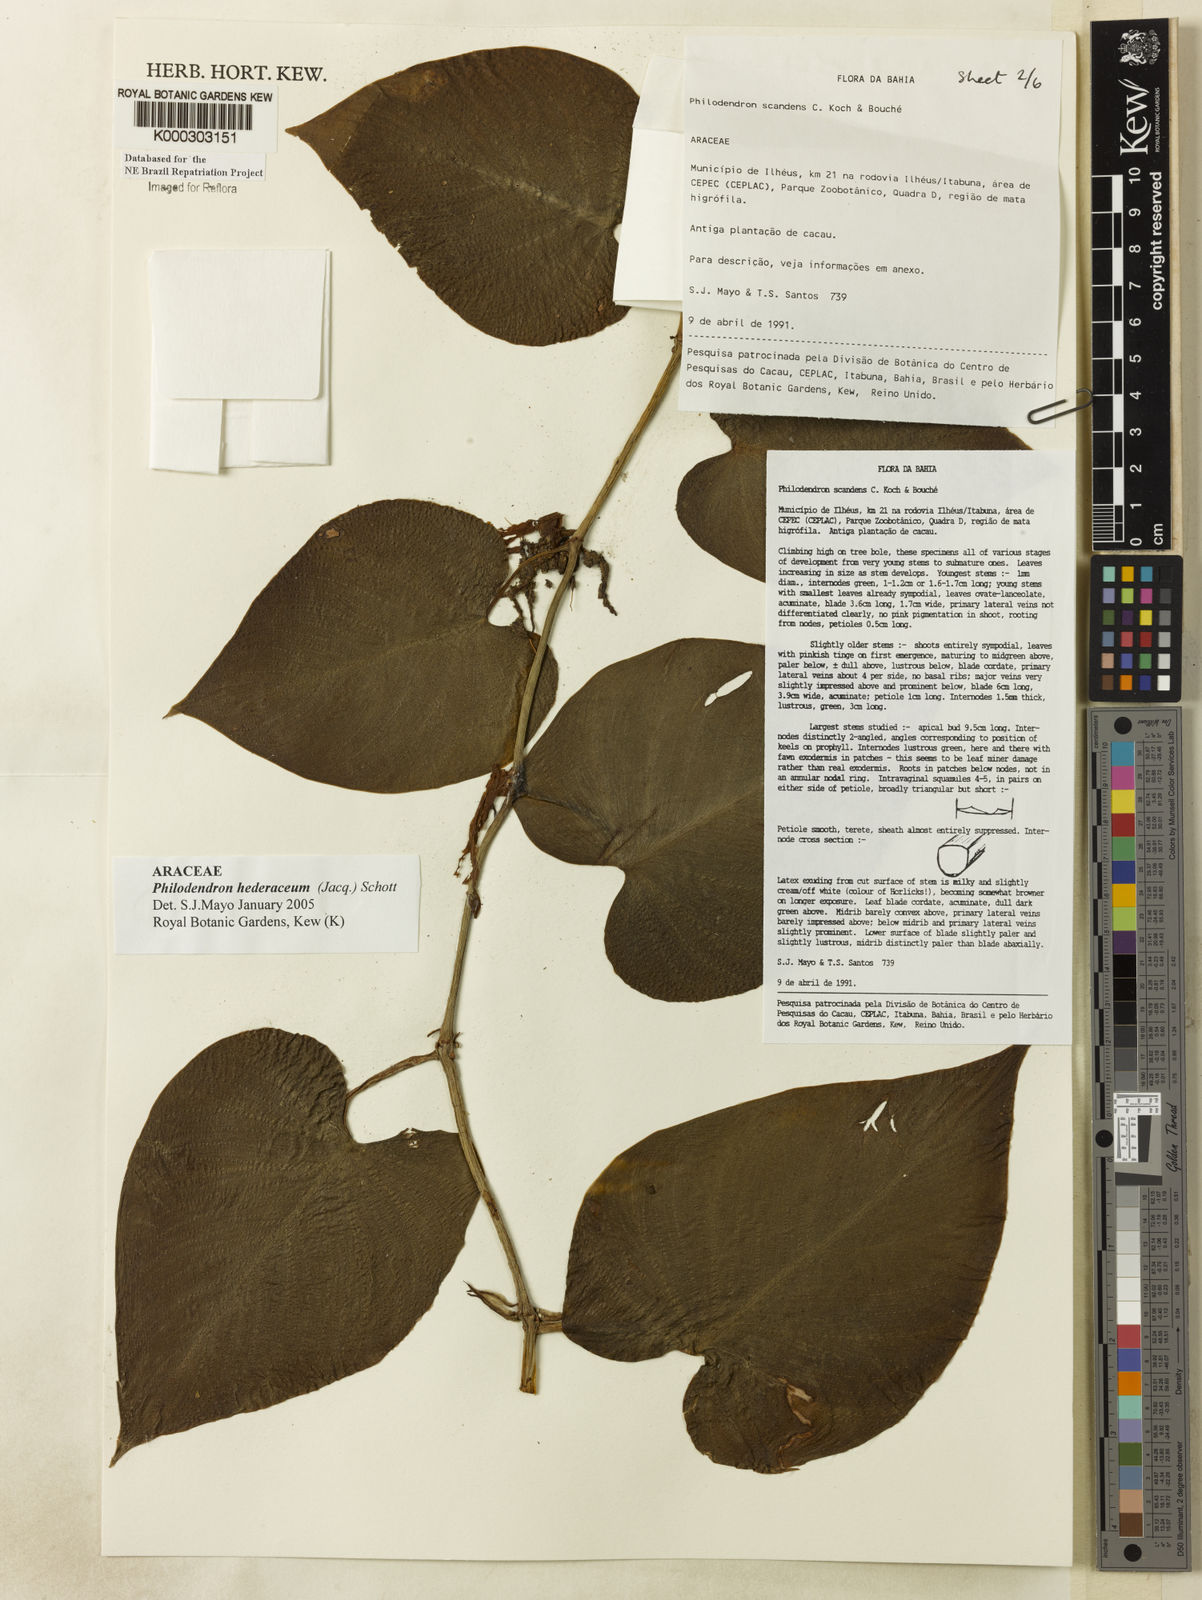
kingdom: Plantae
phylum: Tracheophyta
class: Liliopsida
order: Alismatales
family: Araceae
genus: Philodendron
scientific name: Philodendron hederaceum
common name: Vilevine
